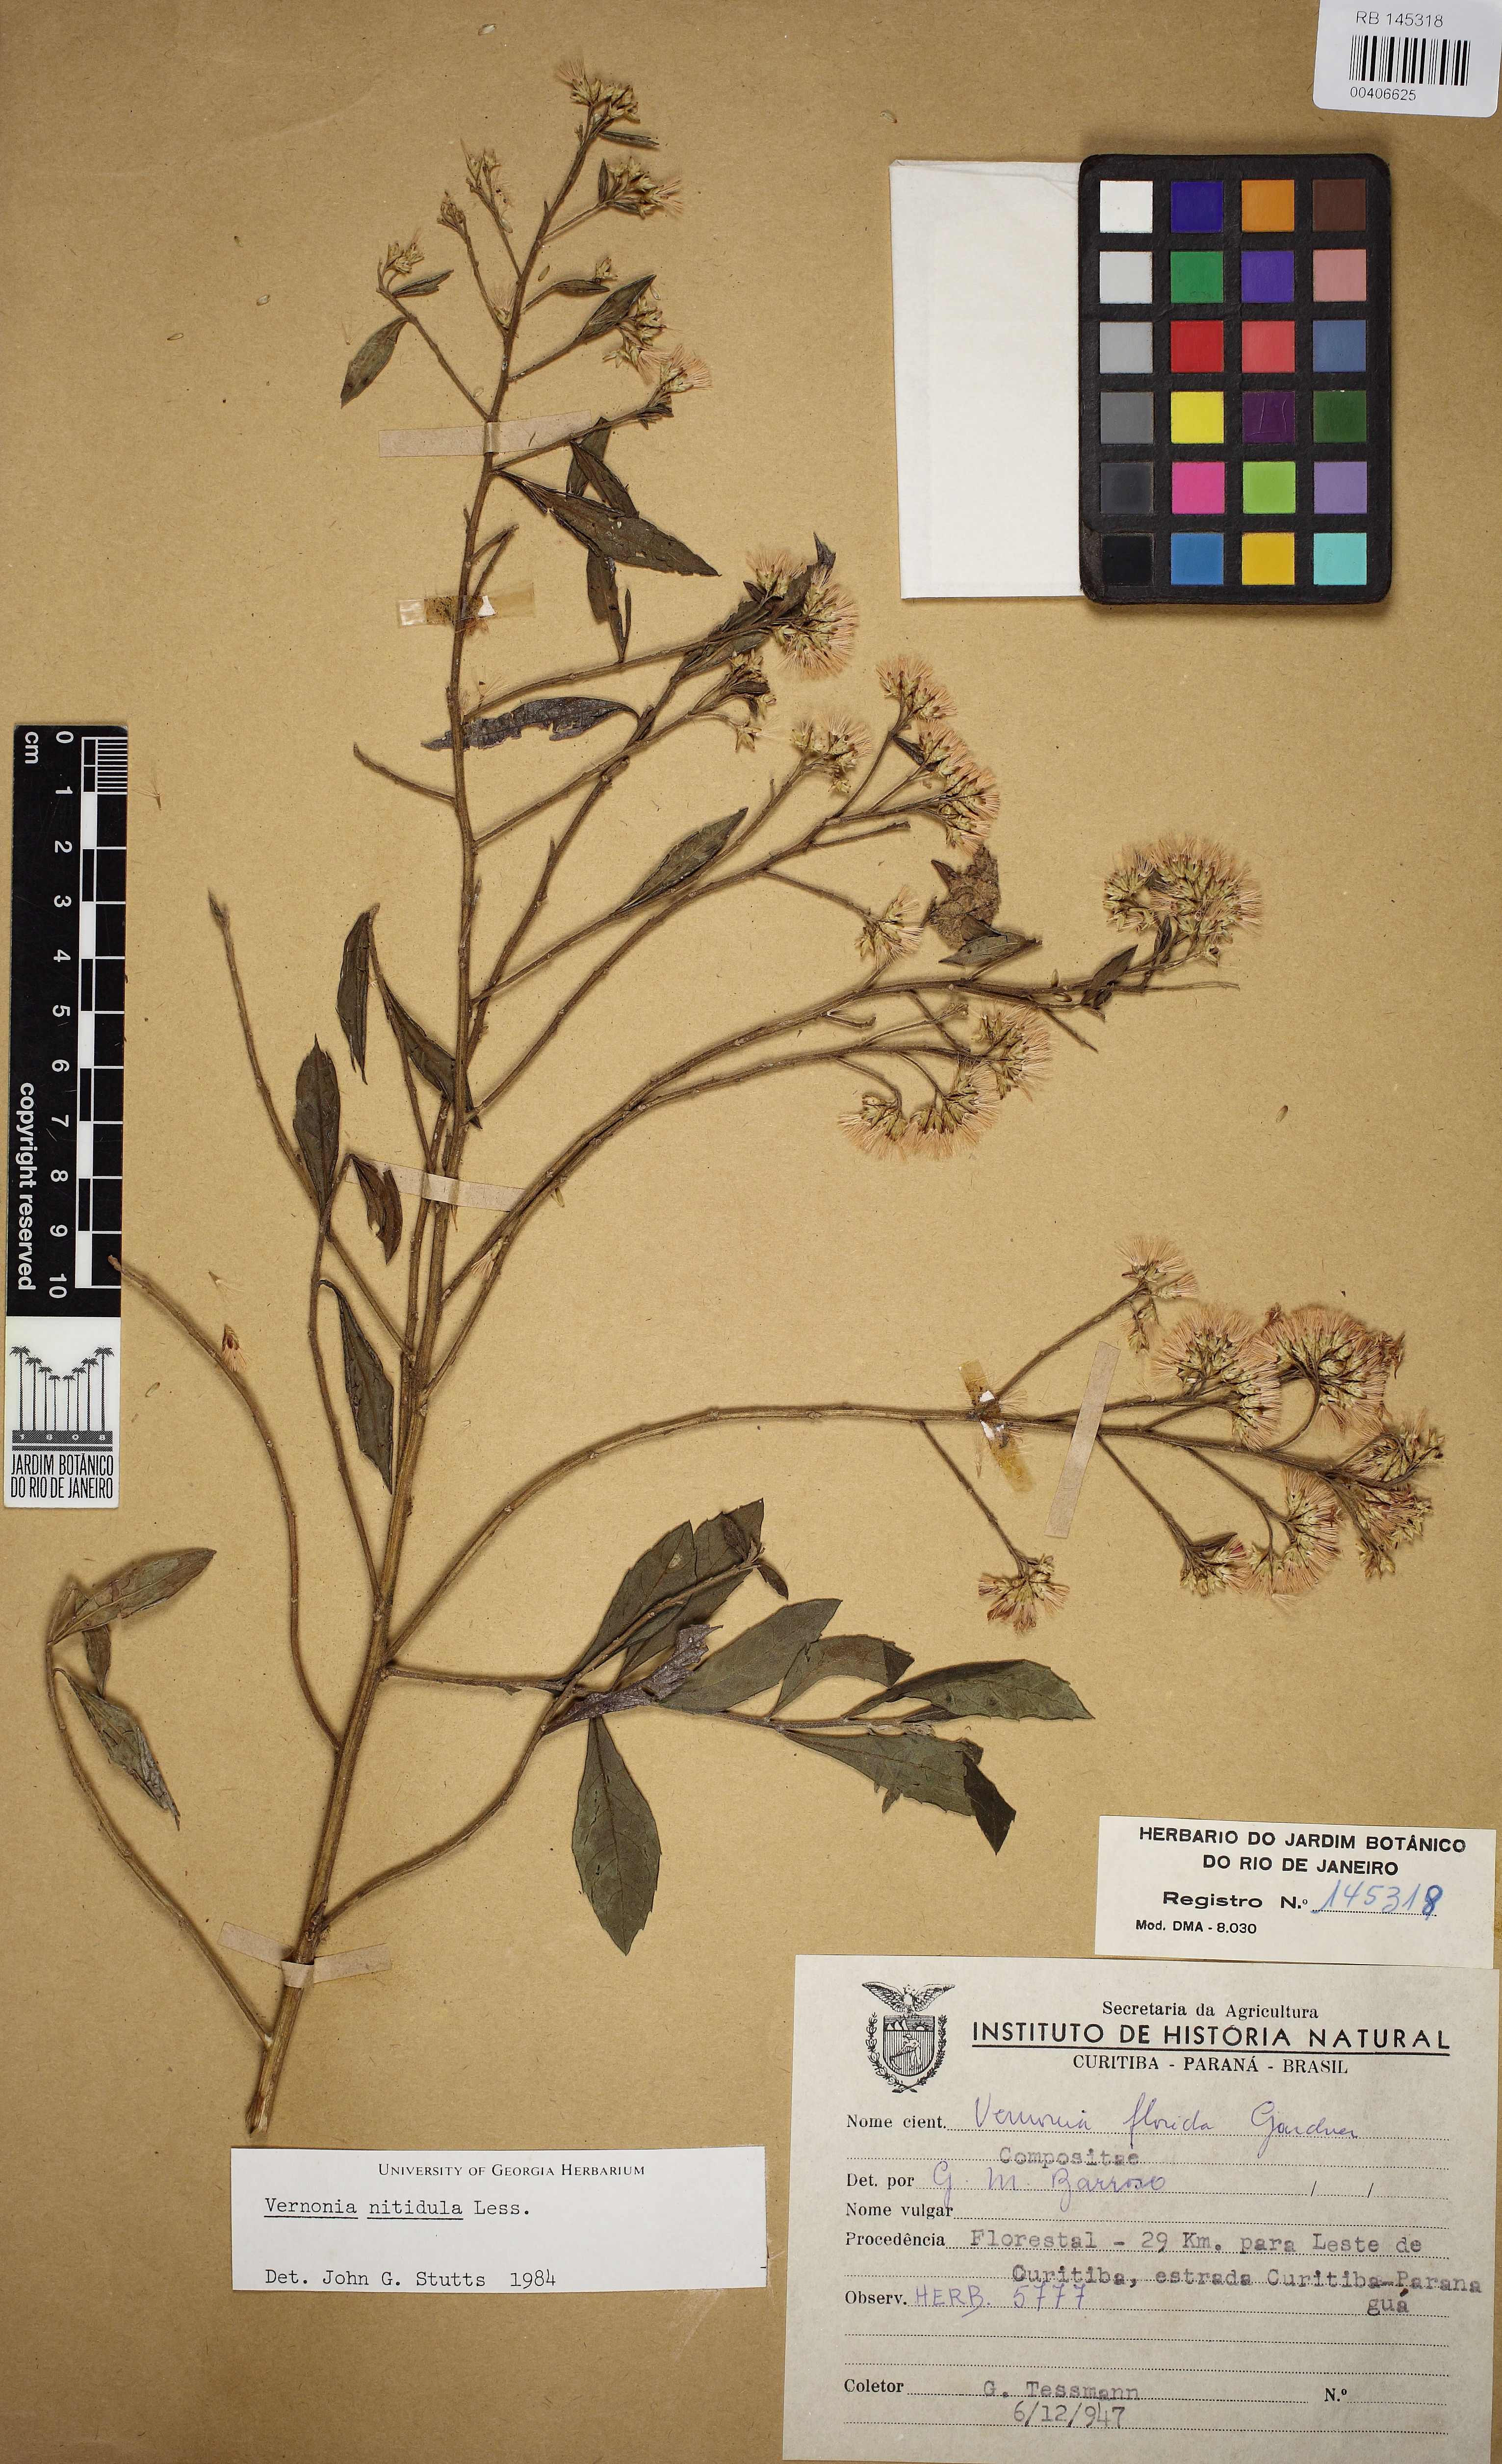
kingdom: Plantae
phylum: Tracheophyta
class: Magnoliopsida
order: Asterales
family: Asteraceae
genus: Vernonanthura
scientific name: Vernonanthura montevidensis
